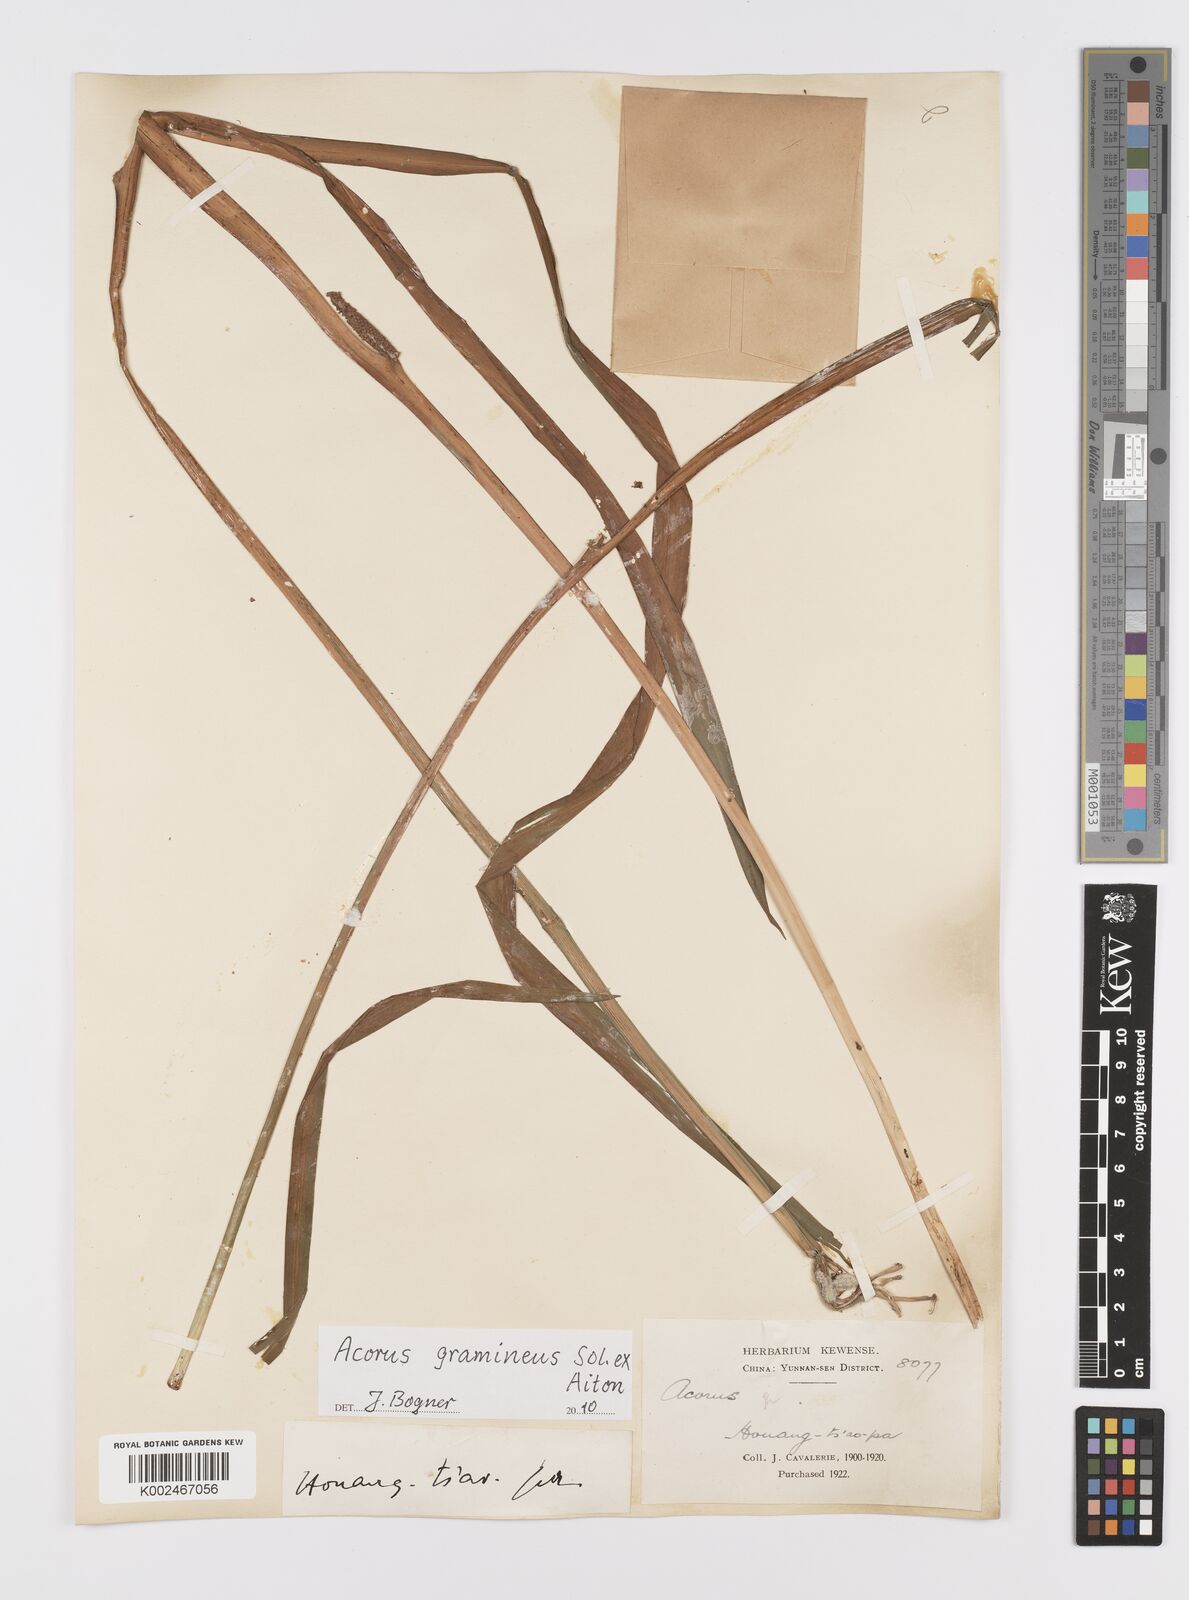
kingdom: Plantae
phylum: Tracheophyta
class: Liliopsida
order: Acorales
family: Acoraceae
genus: Acorus
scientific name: Acorus gramineus
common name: Slender sweet-flag
